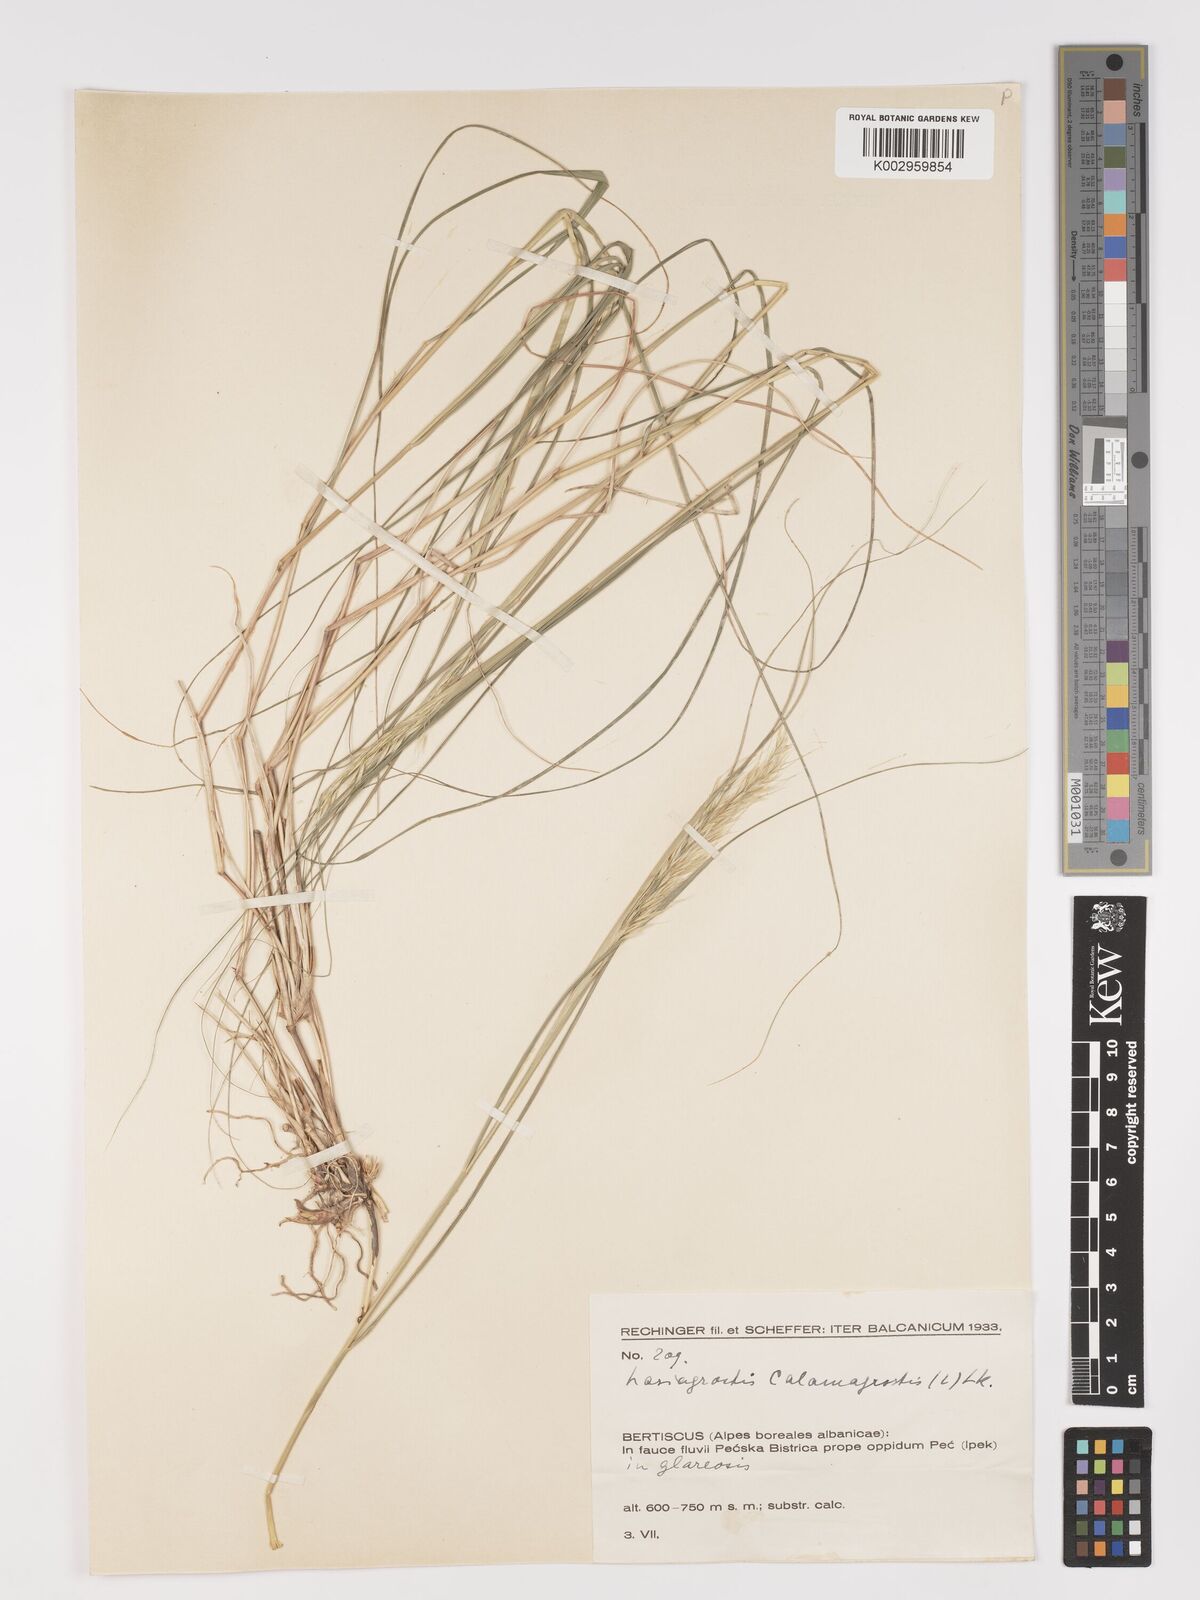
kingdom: Plantae
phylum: Tracheophyta
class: Liliopsida
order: Poales
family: Poaceae
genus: Achnatherum
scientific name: Achnatherum calamagrostis
